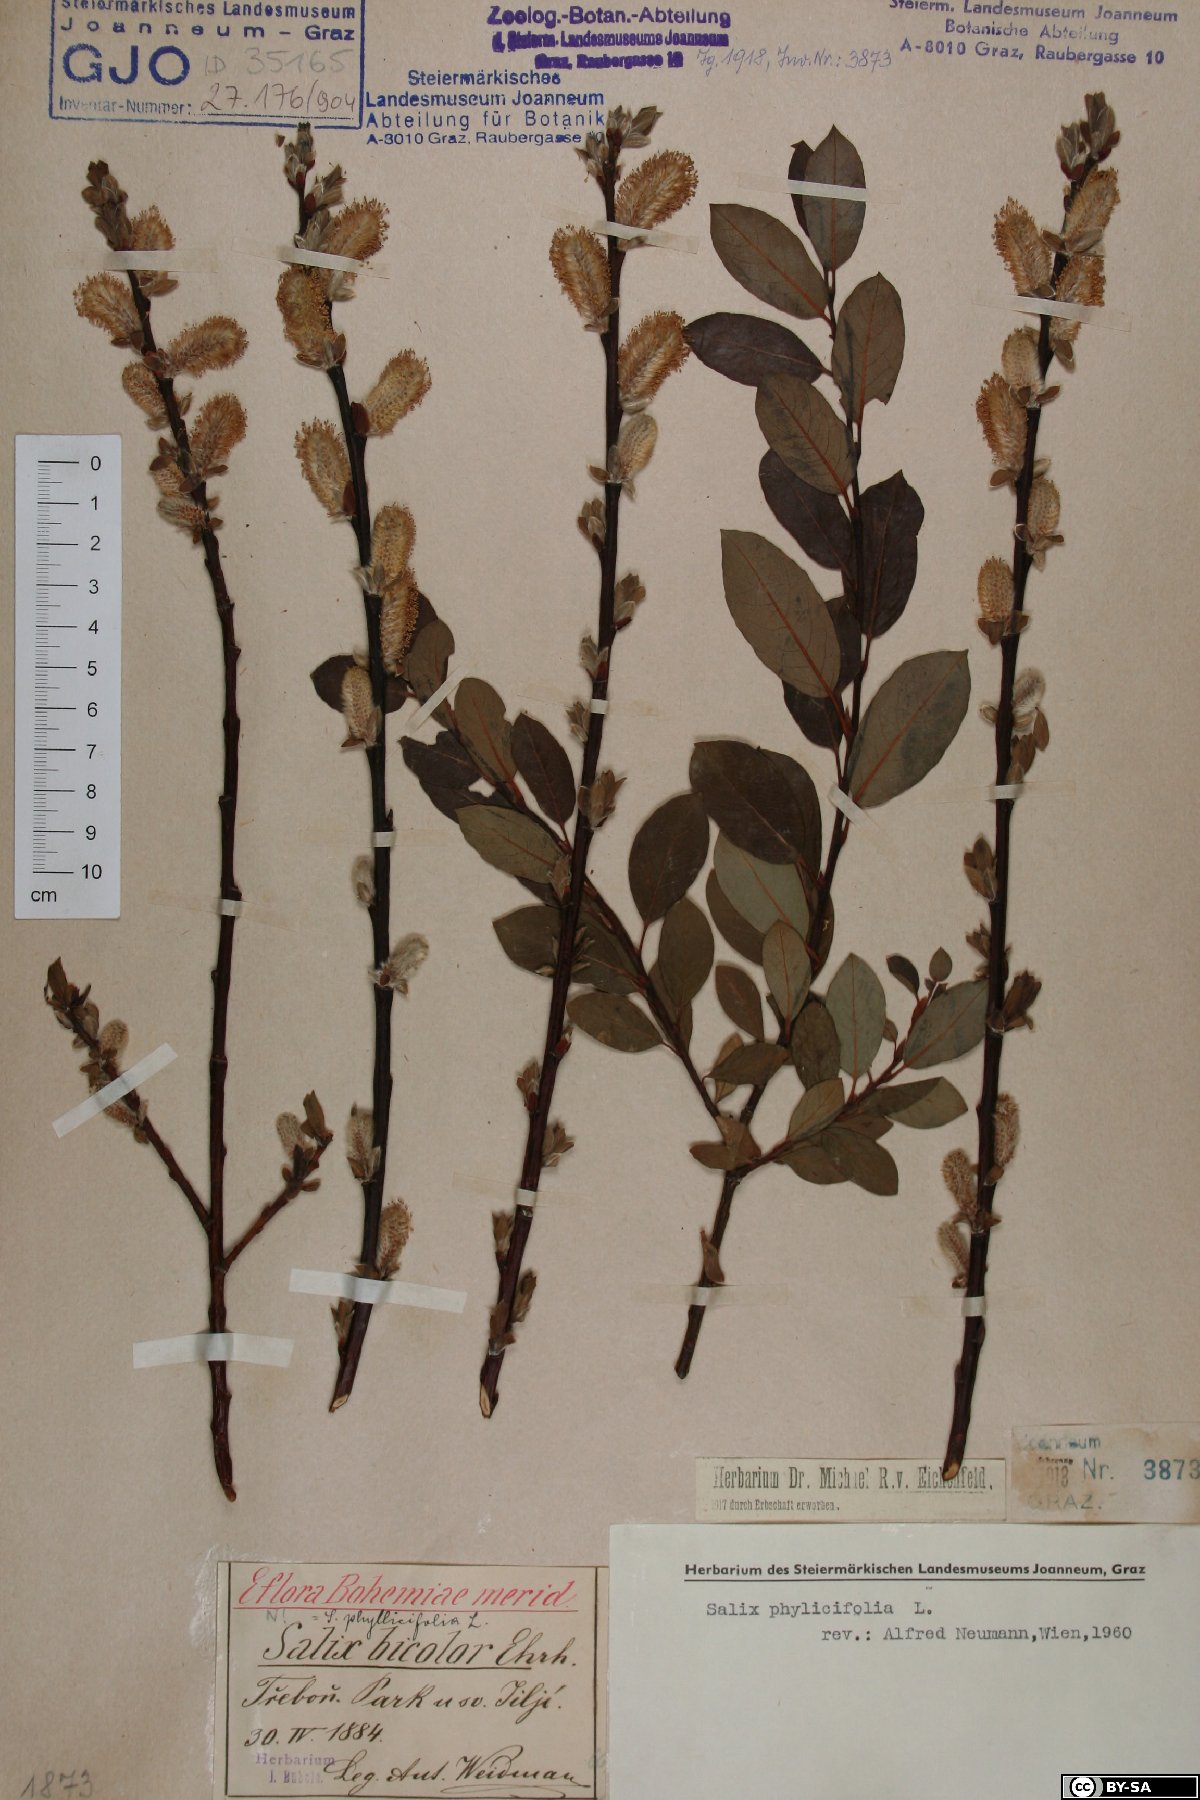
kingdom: Plantae
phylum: Tracheophyta
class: Magnoliopsida
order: Malpighiales
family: Salicaceae
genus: Salix
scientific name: Salix phylicifolia
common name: Tea-leaved willow
